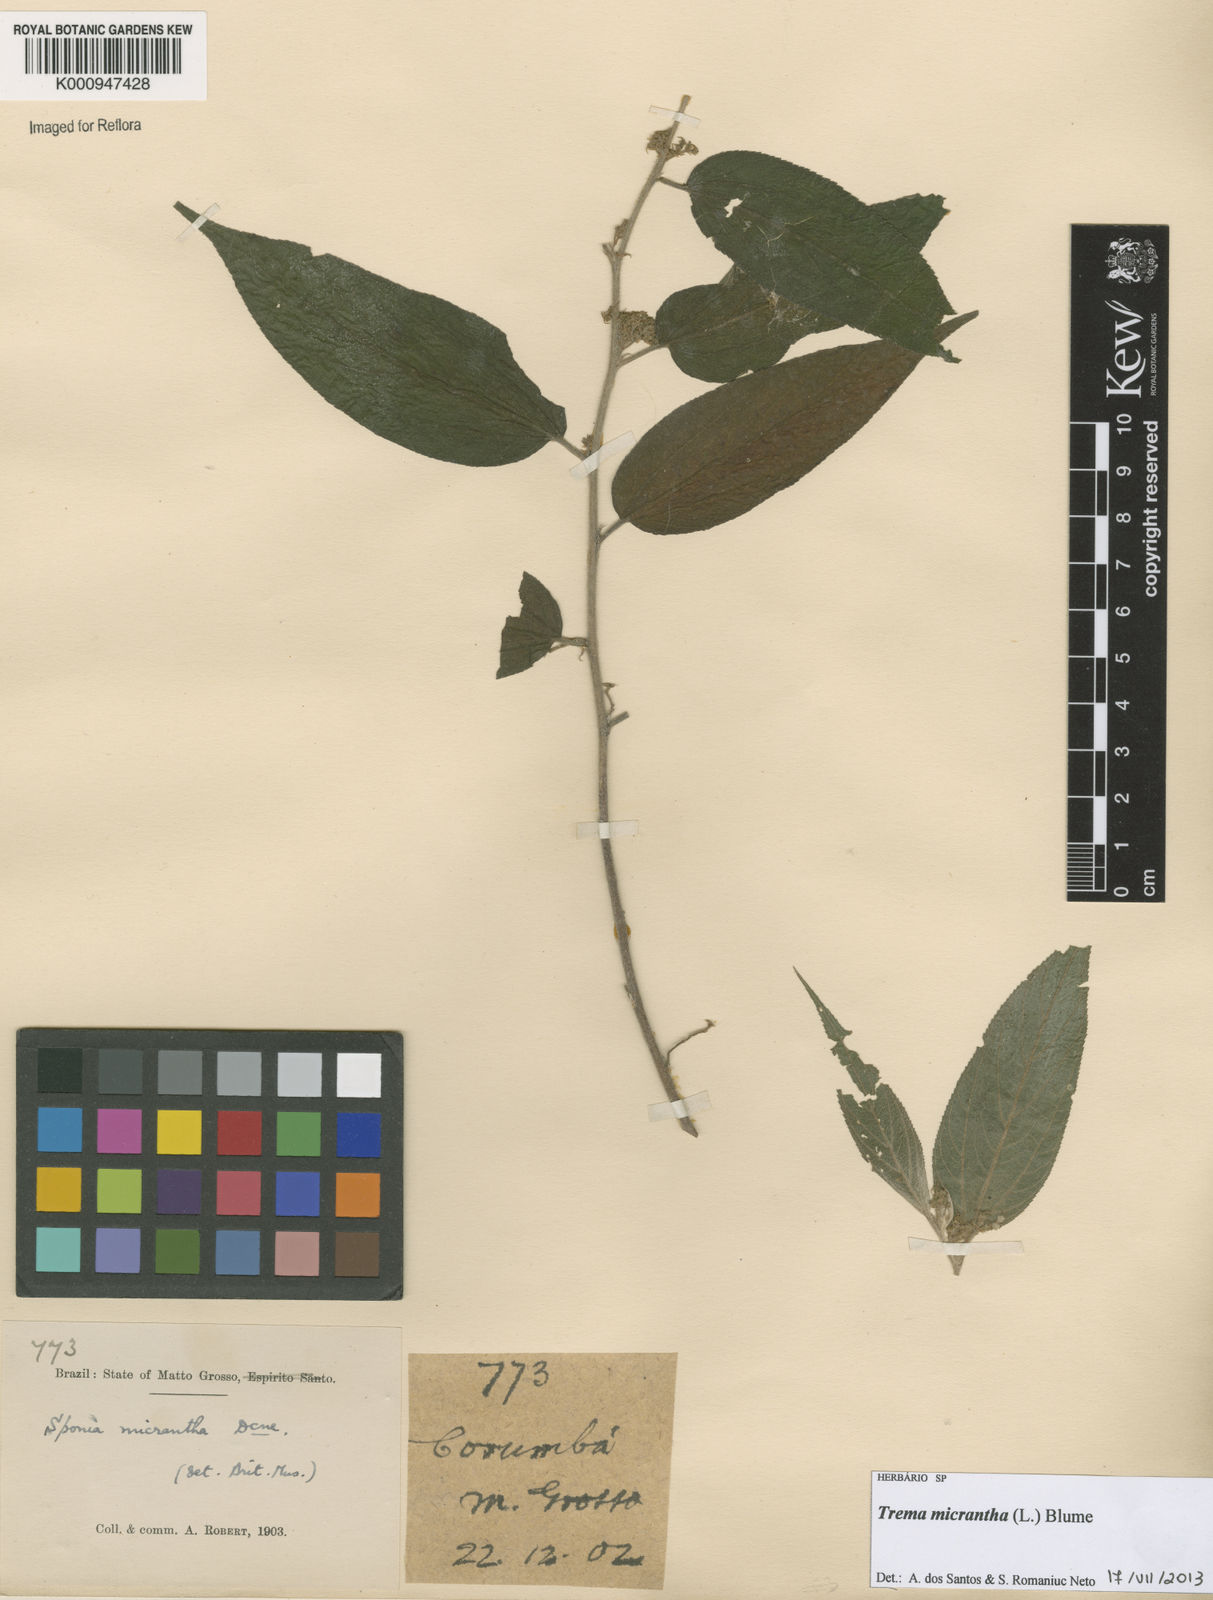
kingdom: Plantae
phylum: Tracheophyta
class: Magnoliopsida
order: Rosales
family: Cannabaceae
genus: Trema
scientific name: Trema micranthum
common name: Jamaican nettletree
